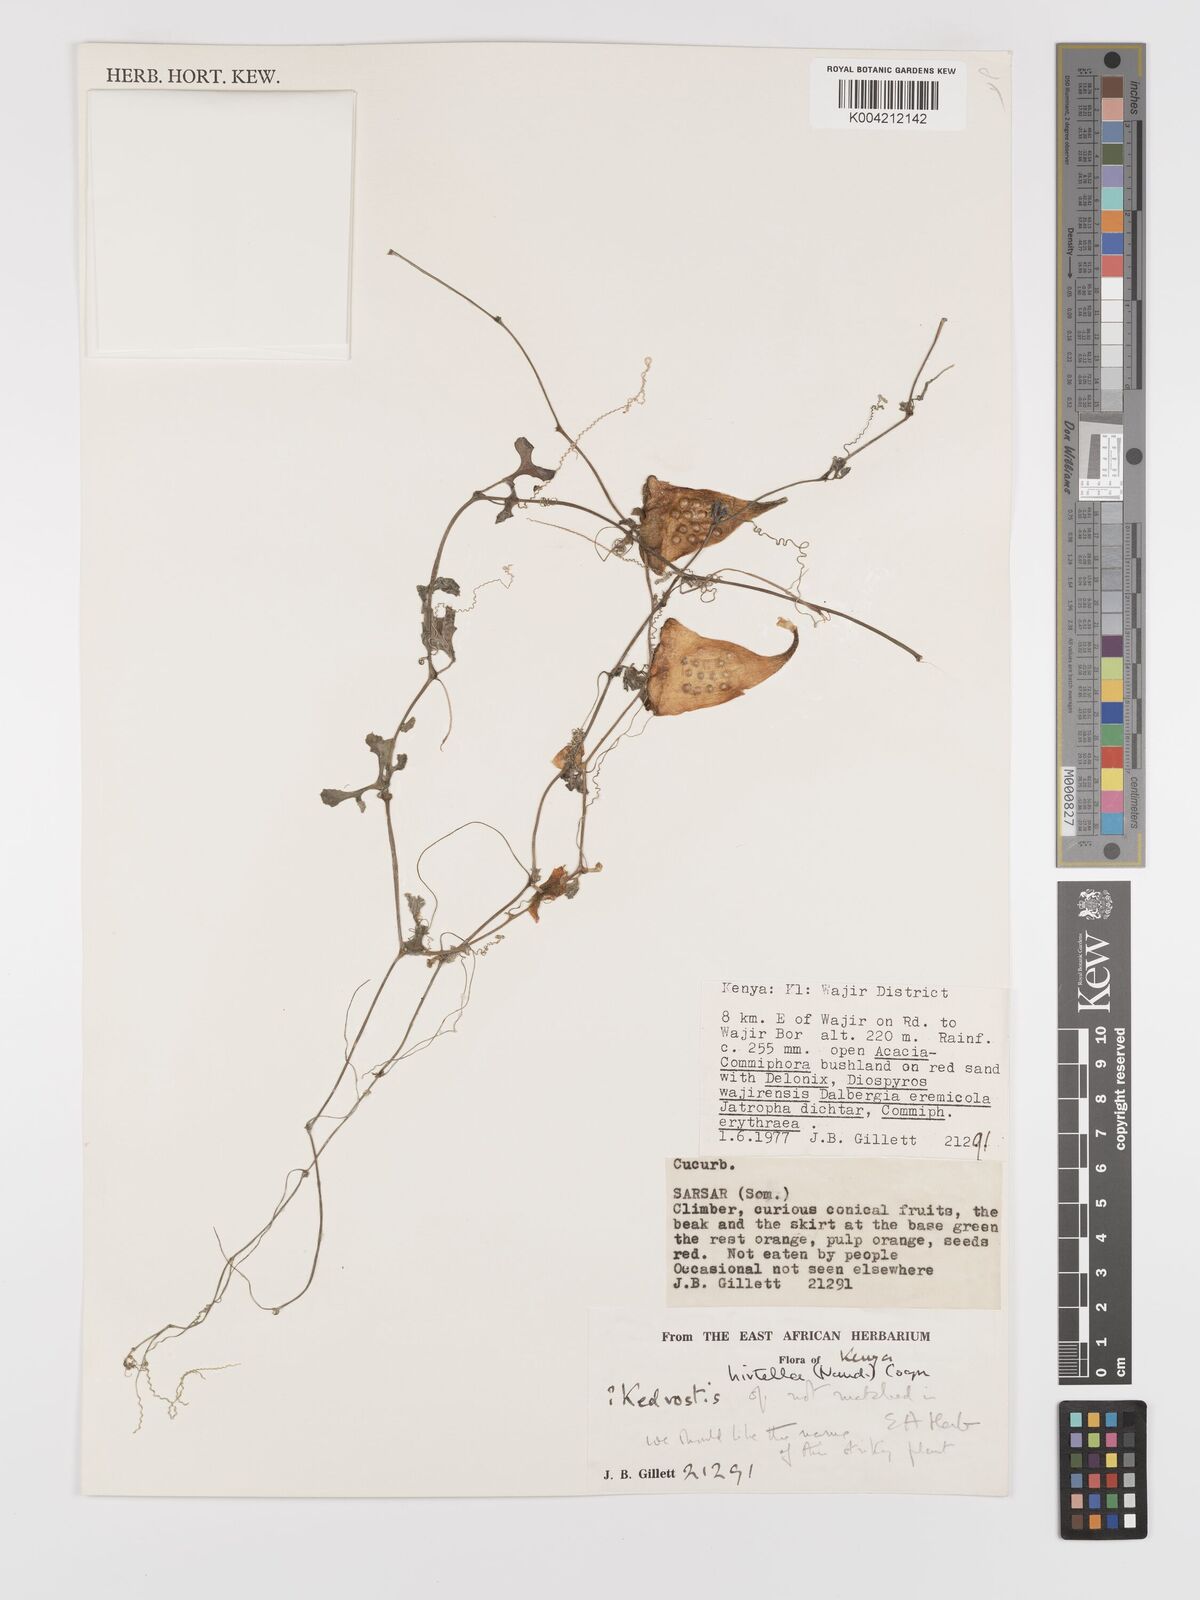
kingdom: Plantae
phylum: Tracheophyta
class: Magnoliopsida
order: Cucurbitales
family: Cucurbitaceae
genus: Kedrostis
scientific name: Kedrostis leloja
